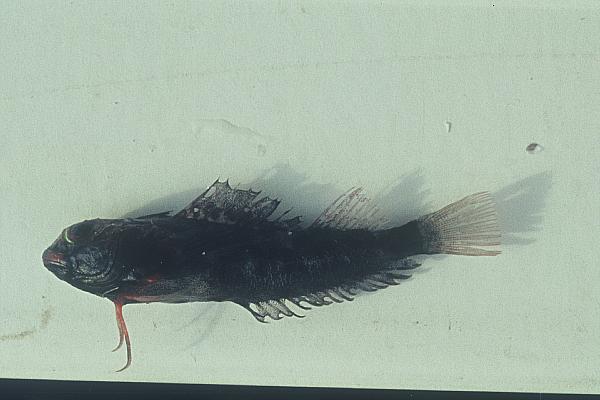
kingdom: Animalia
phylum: Chordata
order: Perciformes
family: Tripterygiidae
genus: Enneapterygius
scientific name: Enneapterygius pusillus
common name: Highcrest triplefin
